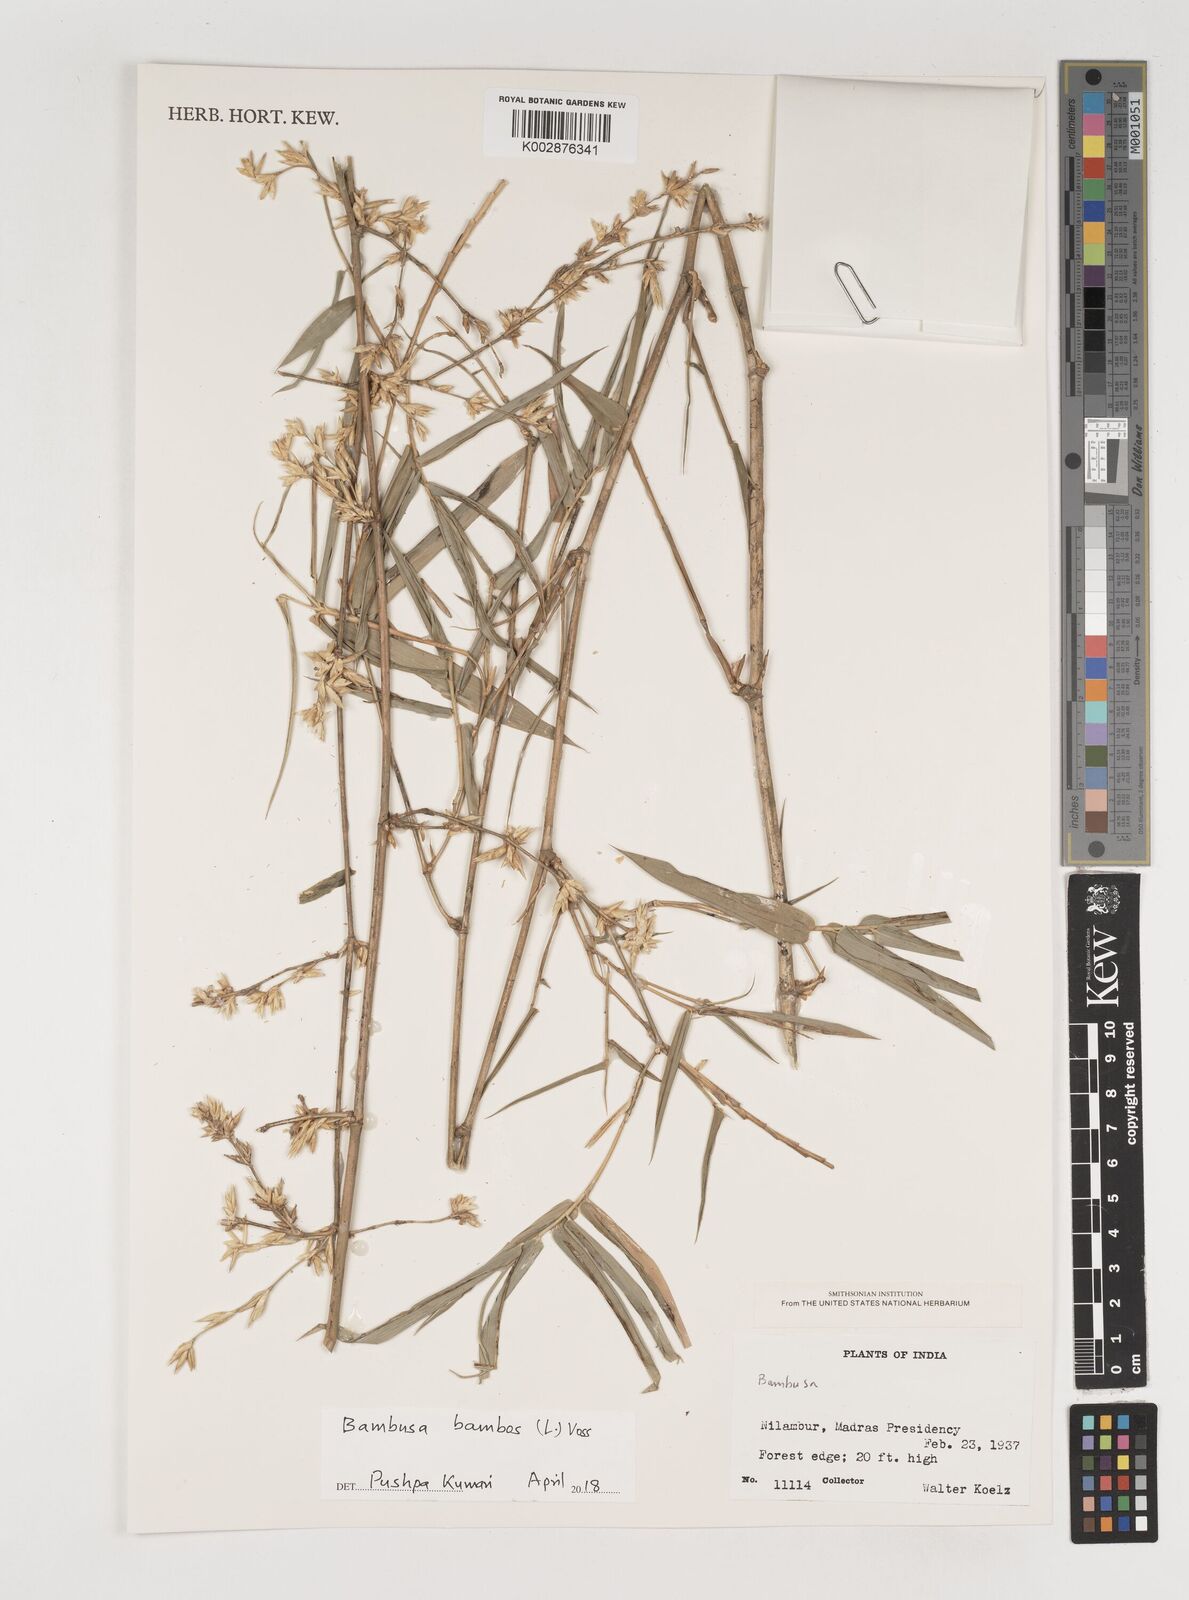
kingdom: Plantae
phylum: Tracheophyta
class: Liliopsida
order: Poales
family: Poaceae
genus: Bambusa
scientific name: Bambusa bambos
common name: Indian thorny bamboo
